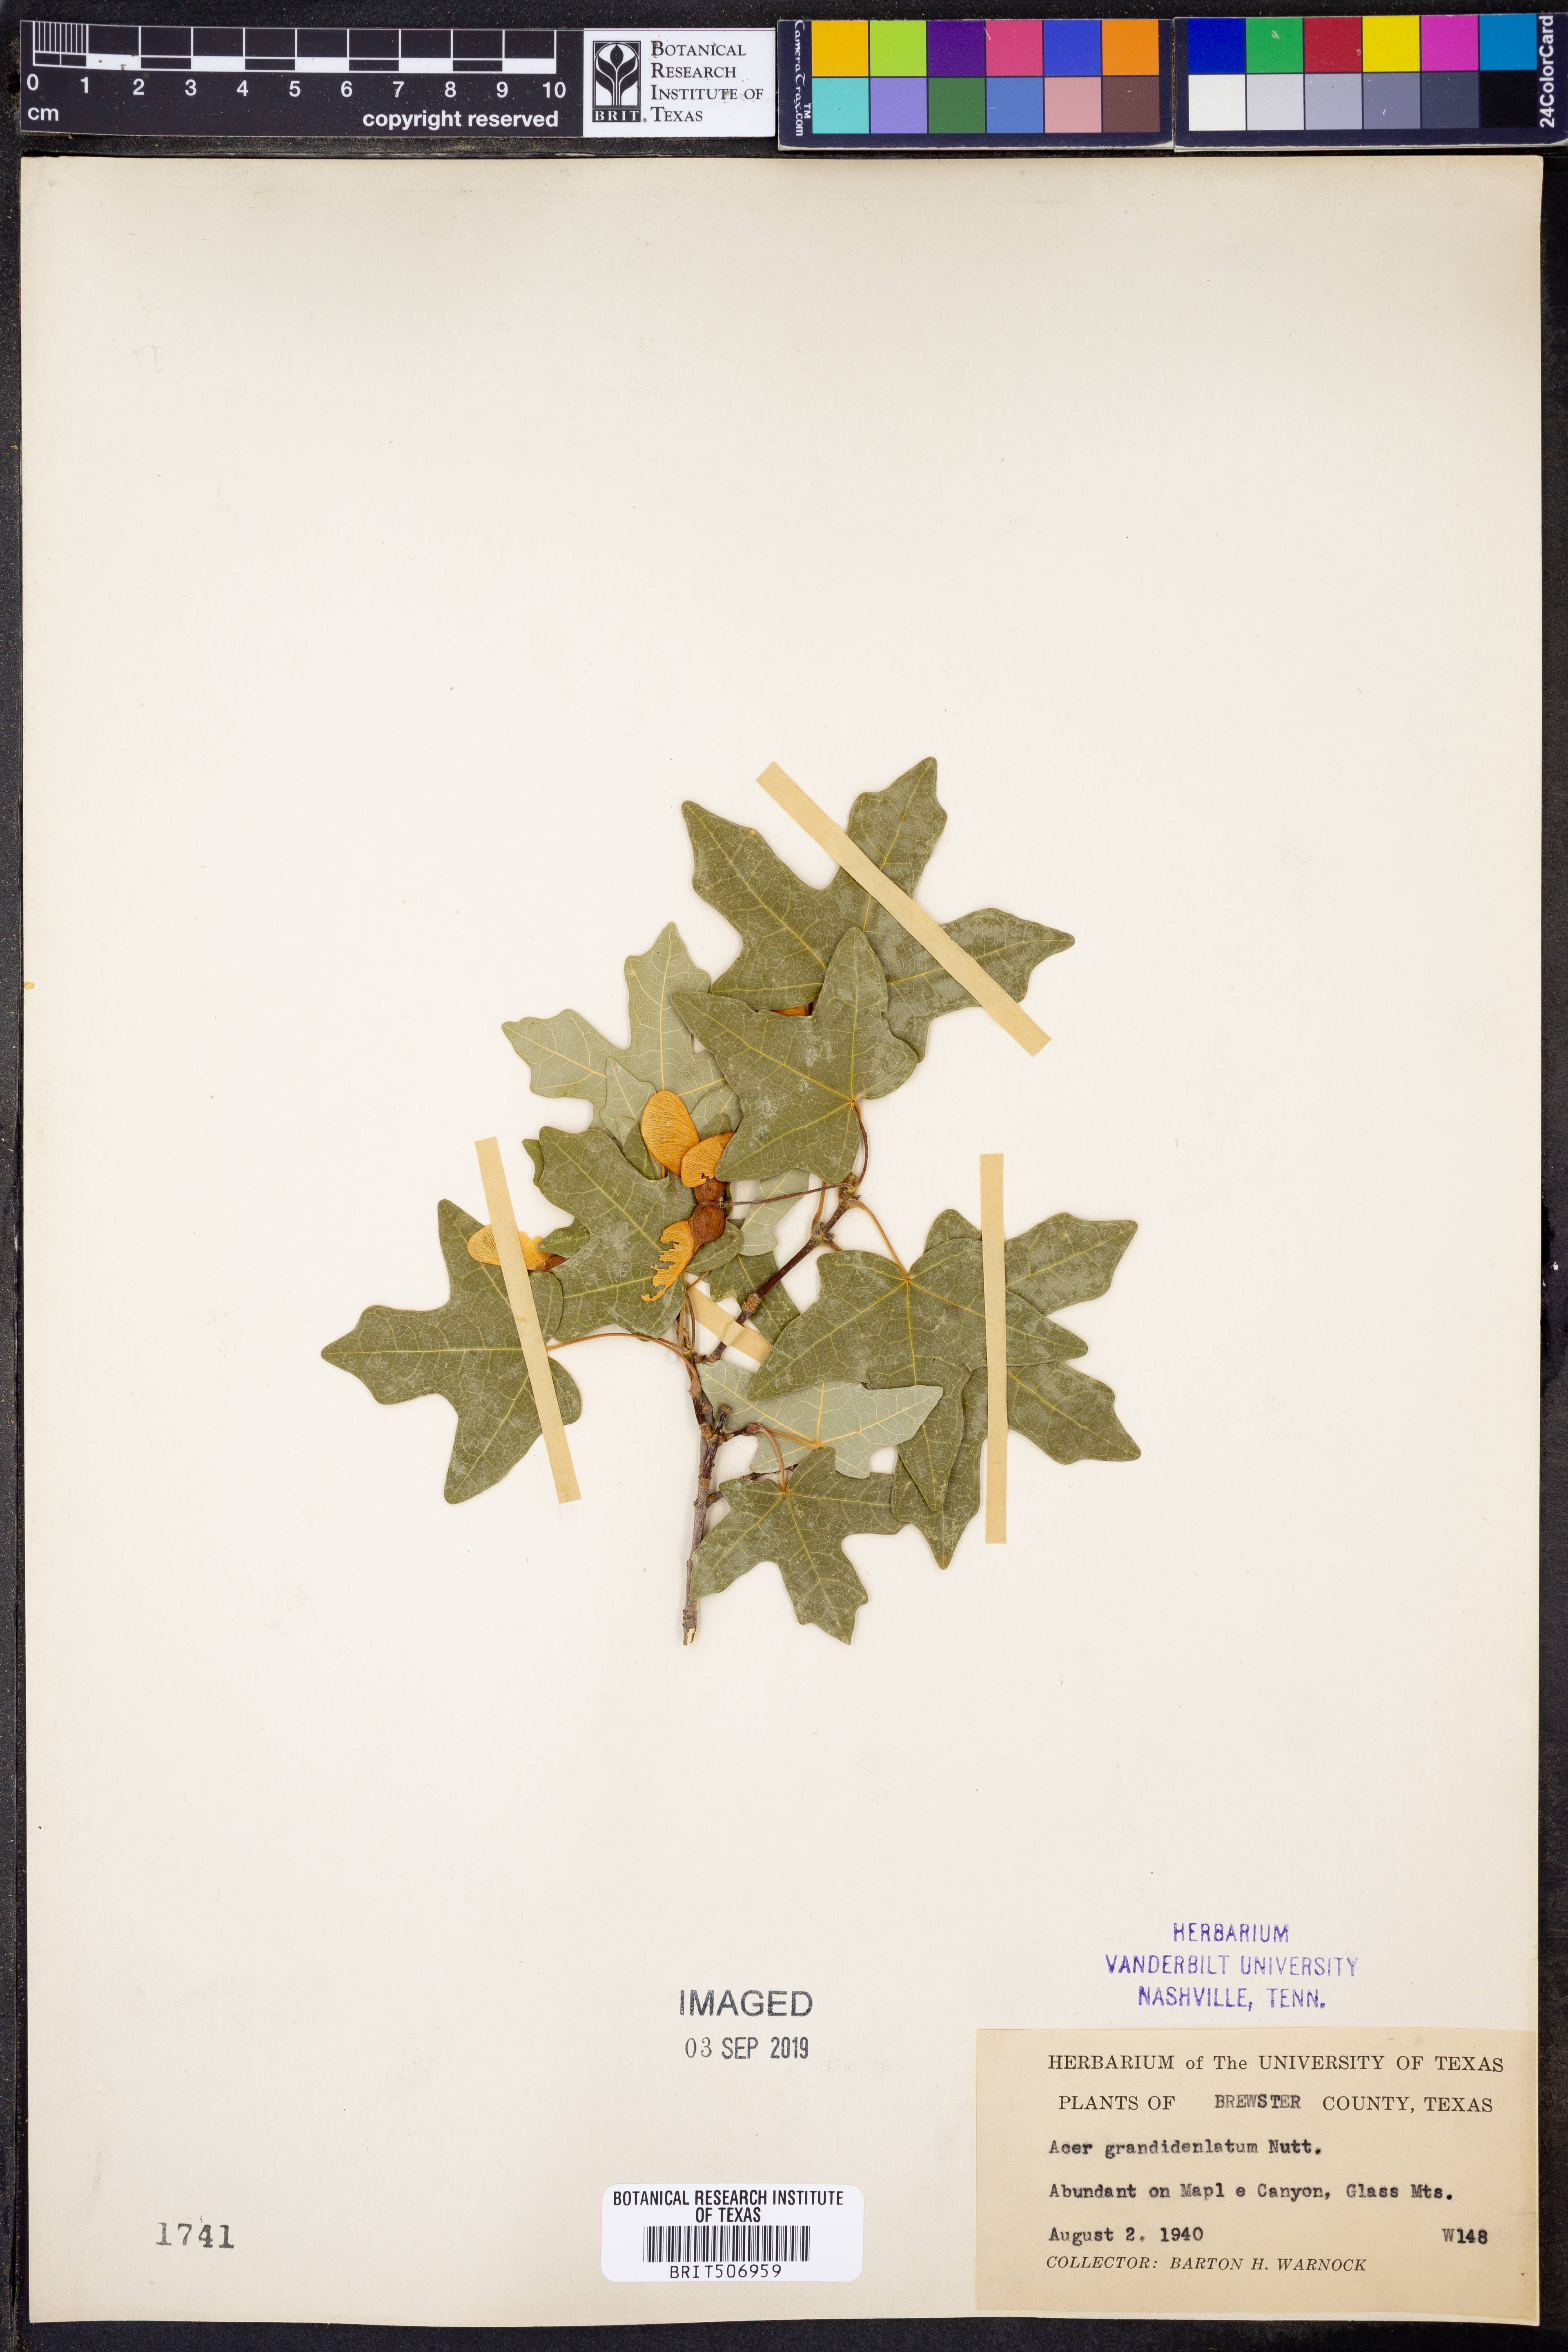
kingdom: Plantae
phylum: Tracheophyta
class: Magnoliopsida
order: Sapindales
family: Sapindaceae
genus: Acer
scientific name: Acer grandidentatum
